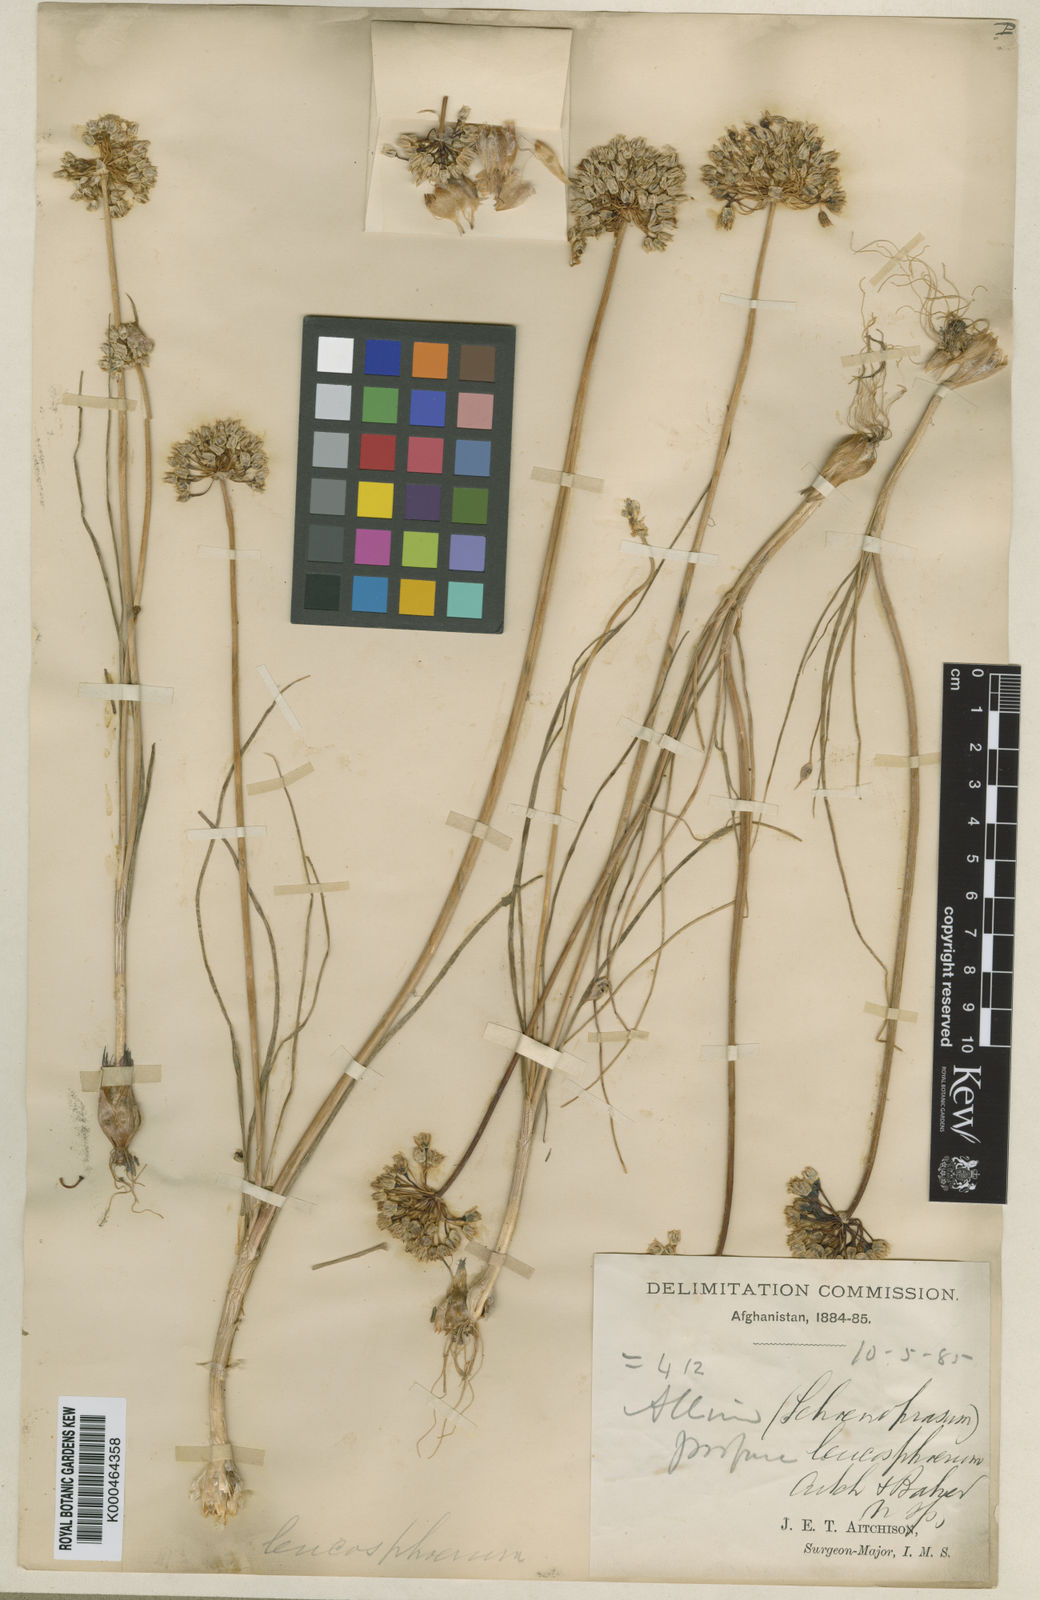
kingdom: Plantae
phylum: Tracheophyta
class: Liliopsida
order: Asparagales
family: Amaryllidaceae
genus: Allium
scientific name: Allium leucosphaerum
